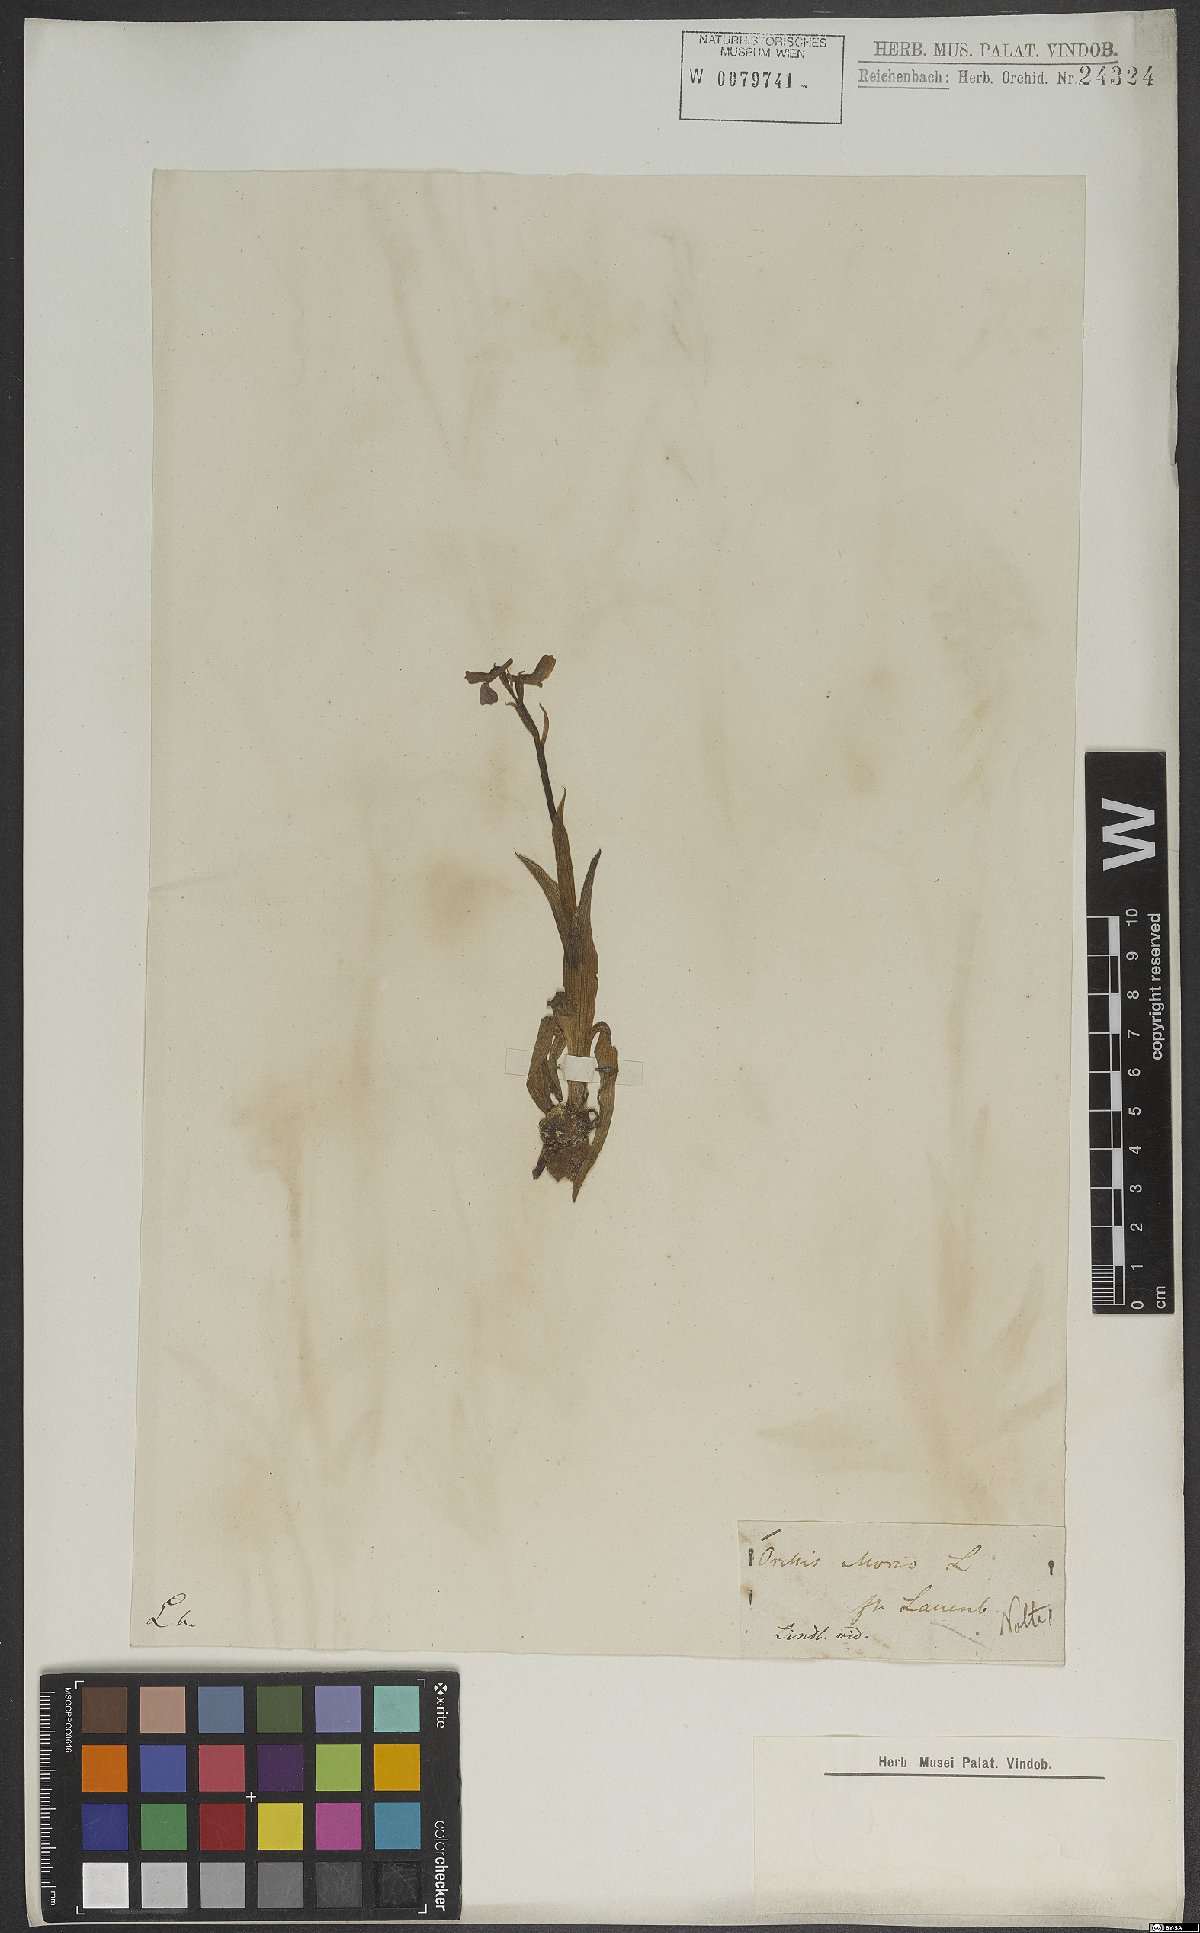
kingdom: Plantae
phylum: Tracheophyta
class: Liliopsida
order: Asparagales
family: Orchidaceae
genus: Anacamptis
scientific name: Anacamptis morio
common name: Green-winged orchid
